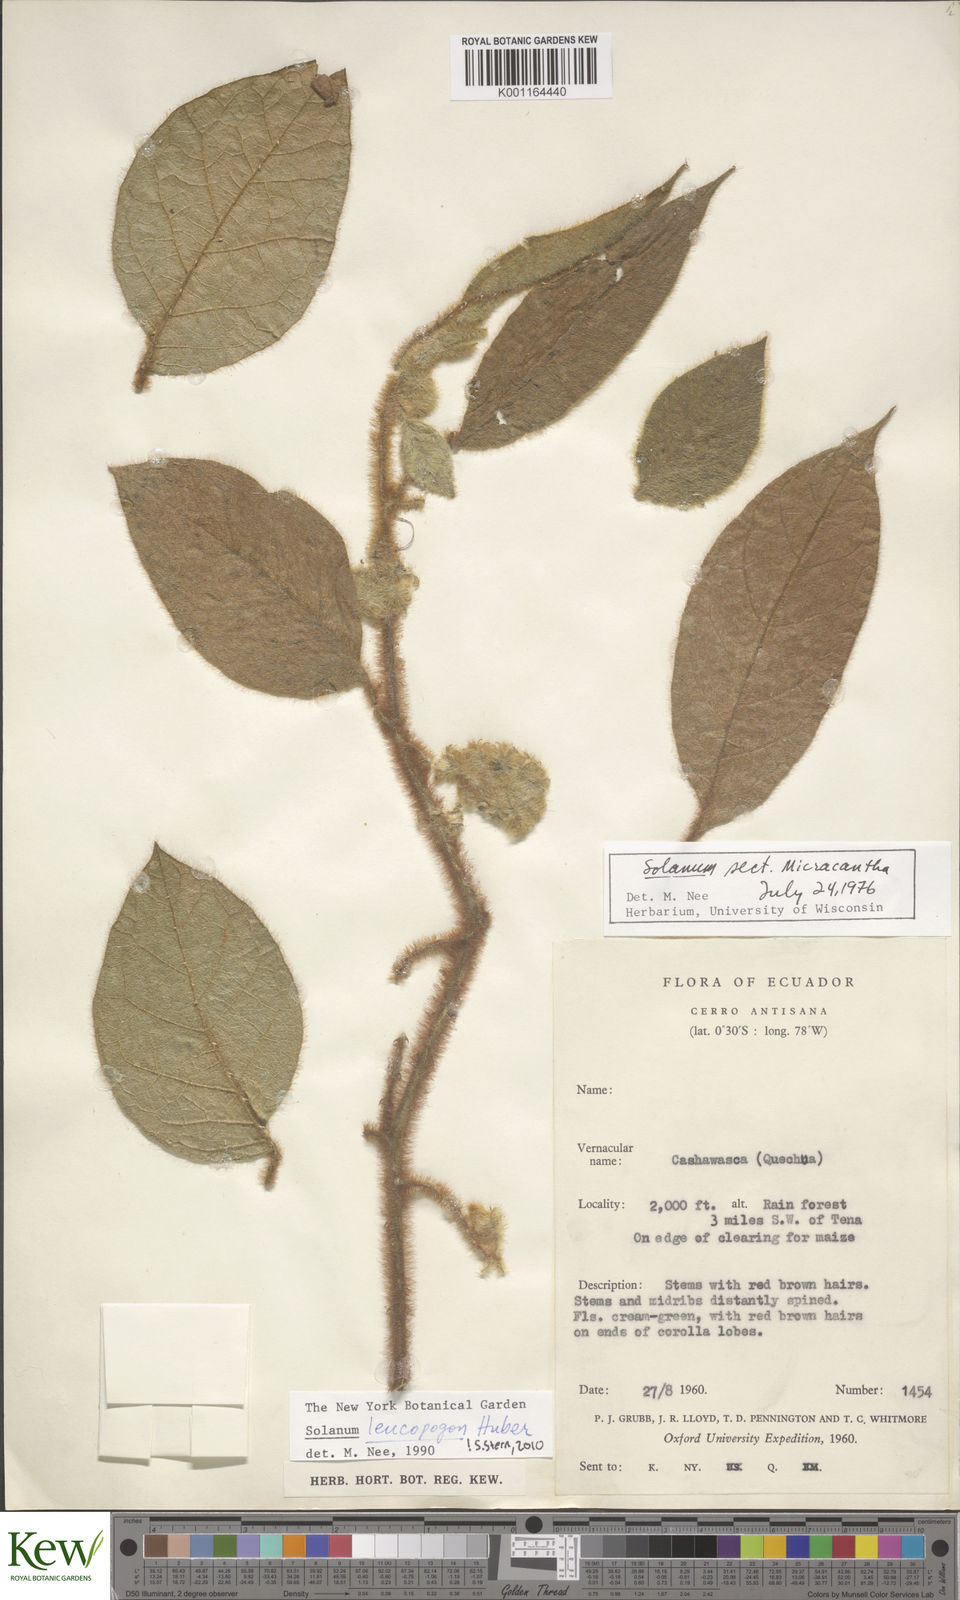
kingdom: Plantae
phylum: Tracheophyta
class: Magnoliopsida
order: Solanales
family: Solanaceae
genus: Solanum
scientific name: Solanum leucopogon
